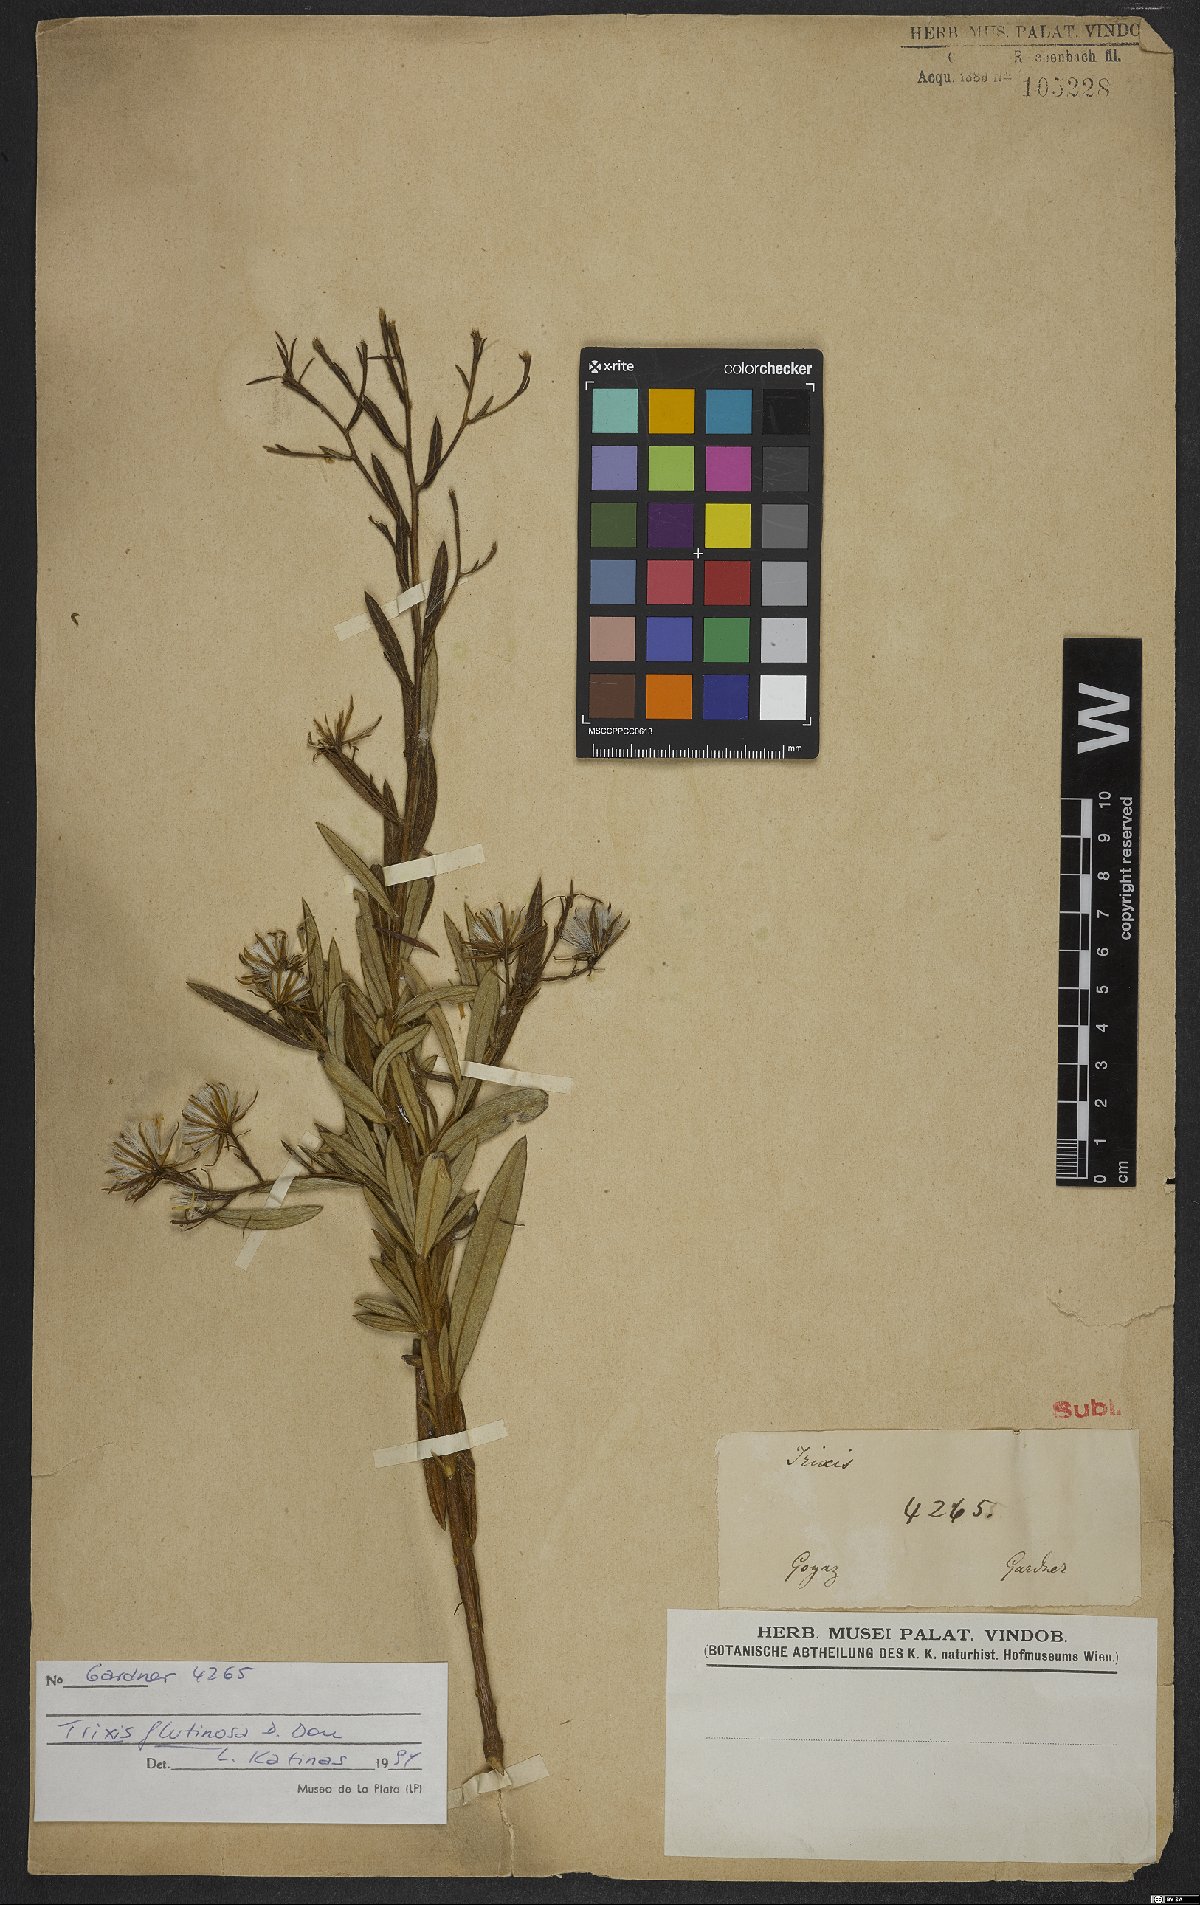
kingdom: Plantae
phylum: Tracheophyta
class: Magnoliopsida
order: Asterales
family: Asteraceae
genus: Trixis
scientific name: Trixis glutinosa
